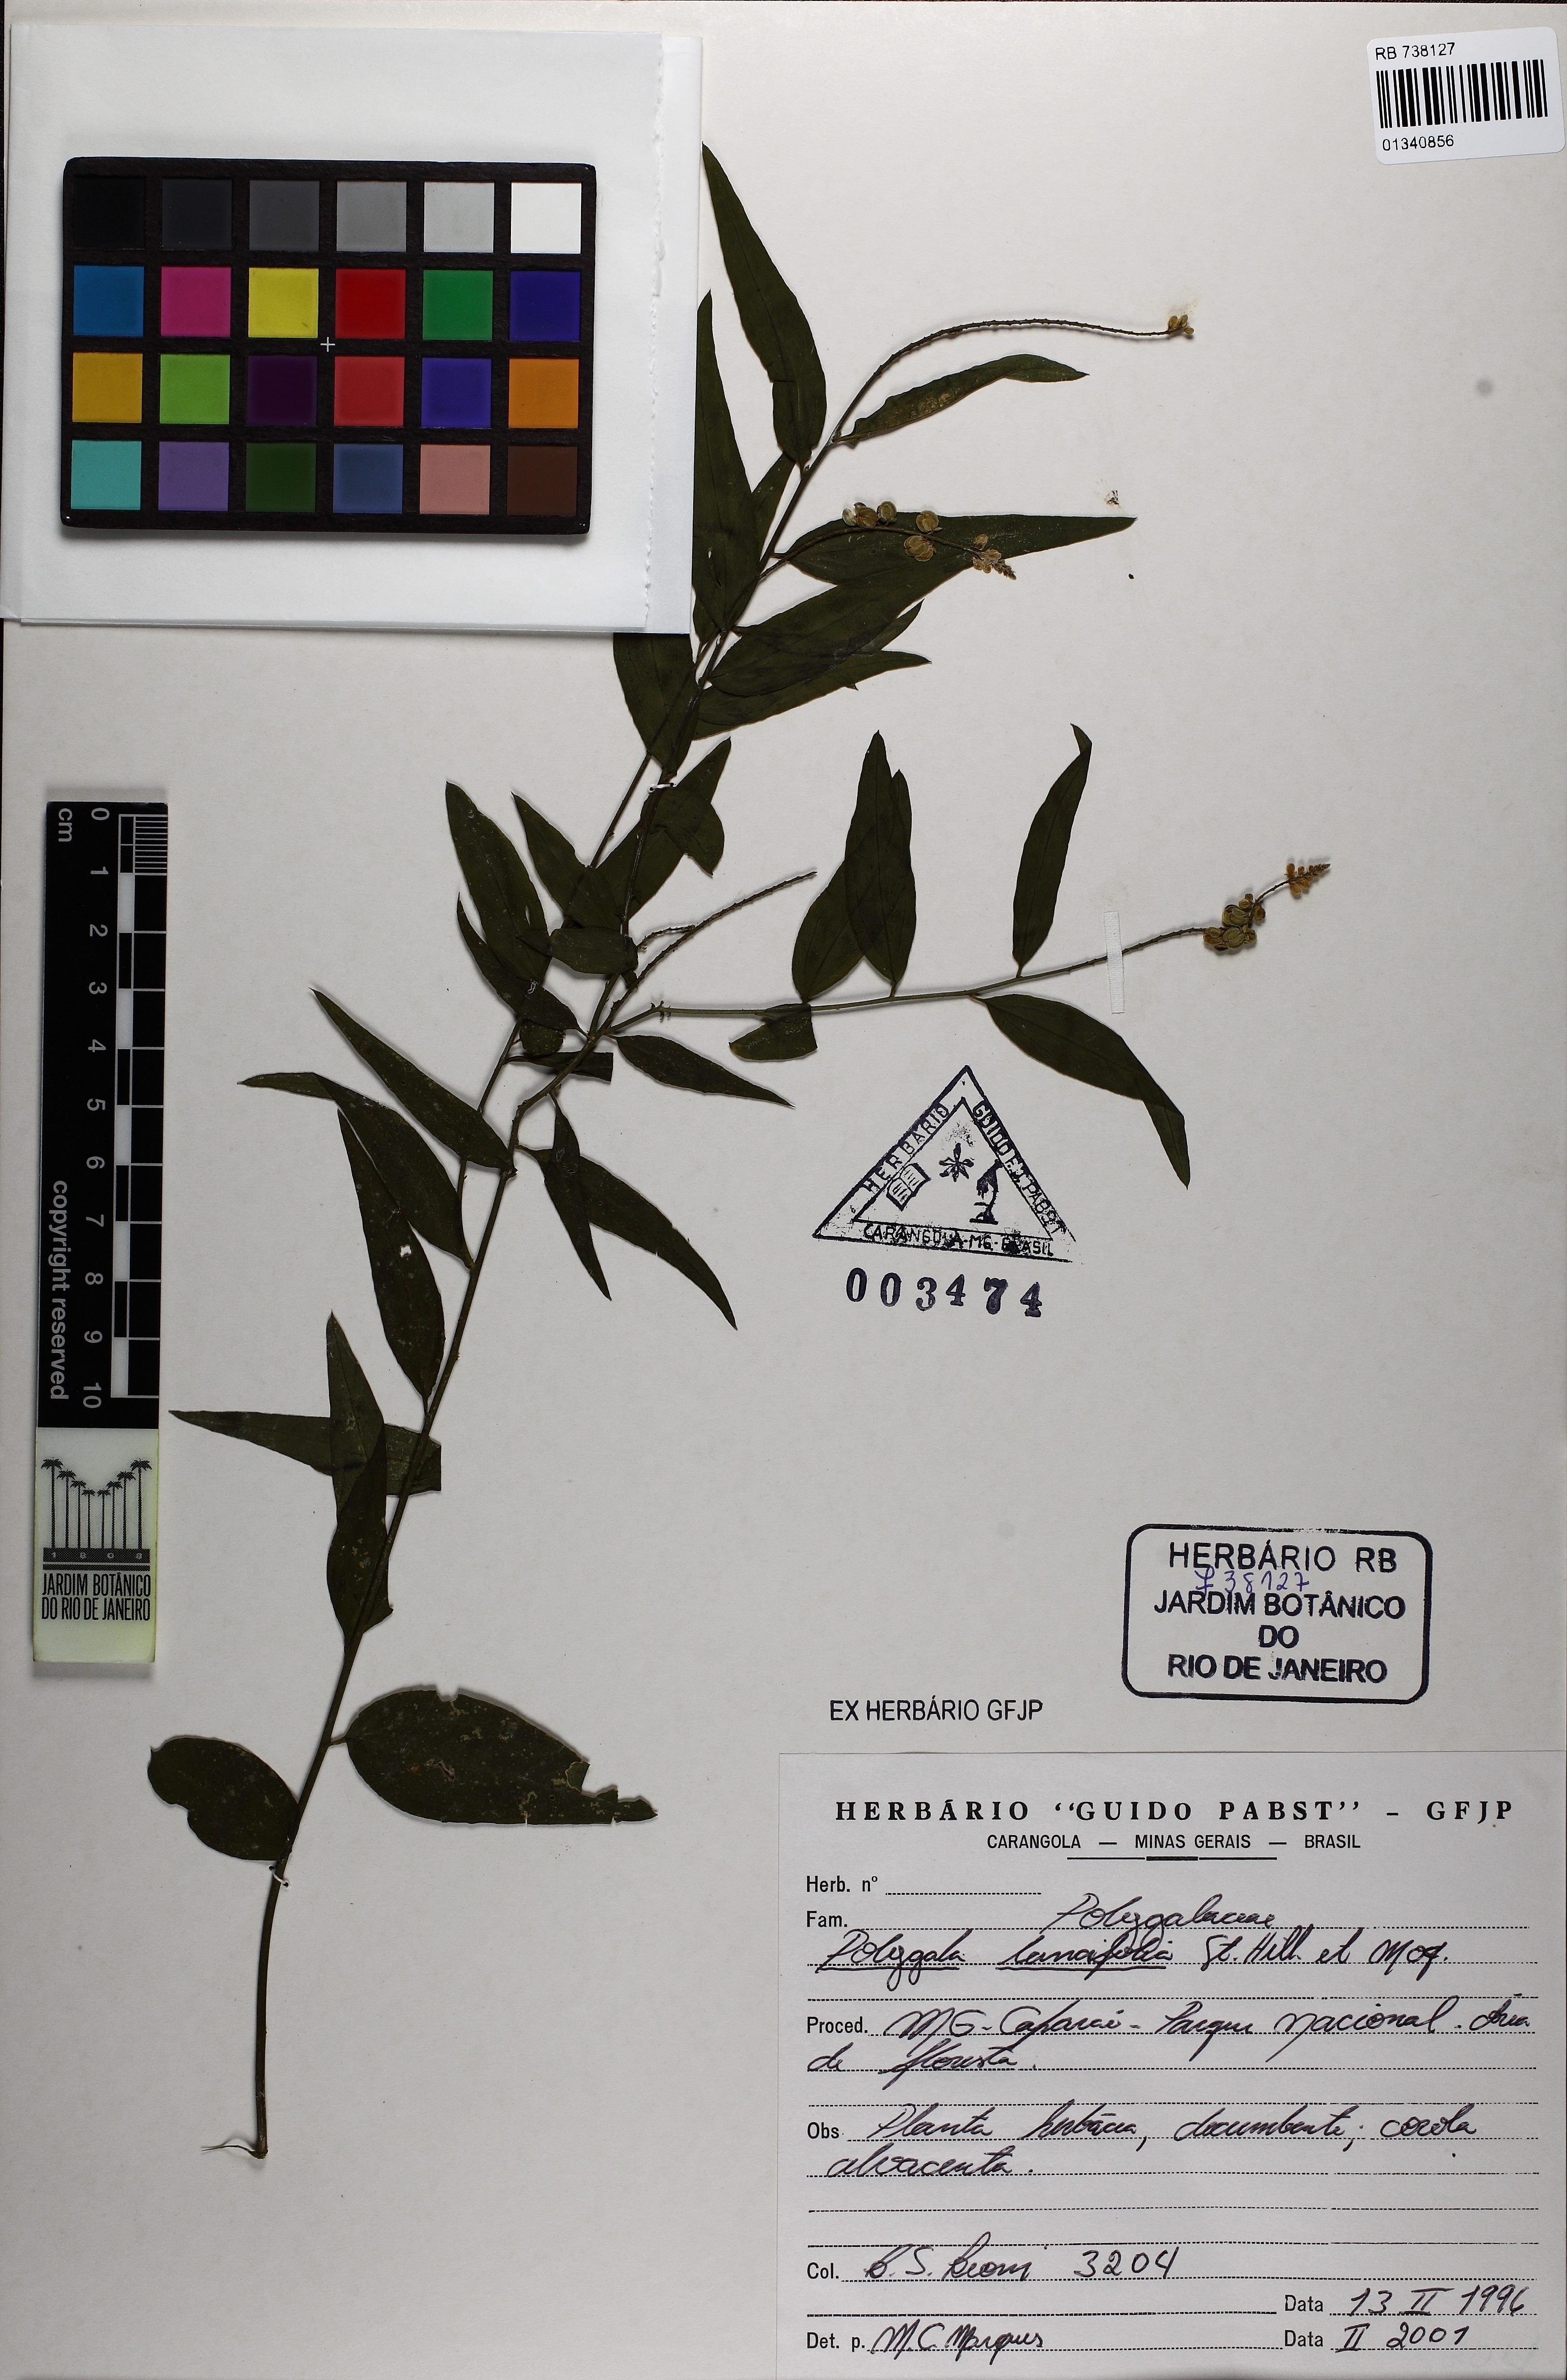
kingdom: Plantae
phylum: Tracheophyta
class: Magnoliopsida
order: Fabales
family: Polygalaceae
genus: Polygala
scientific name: Polygala lancifolia
